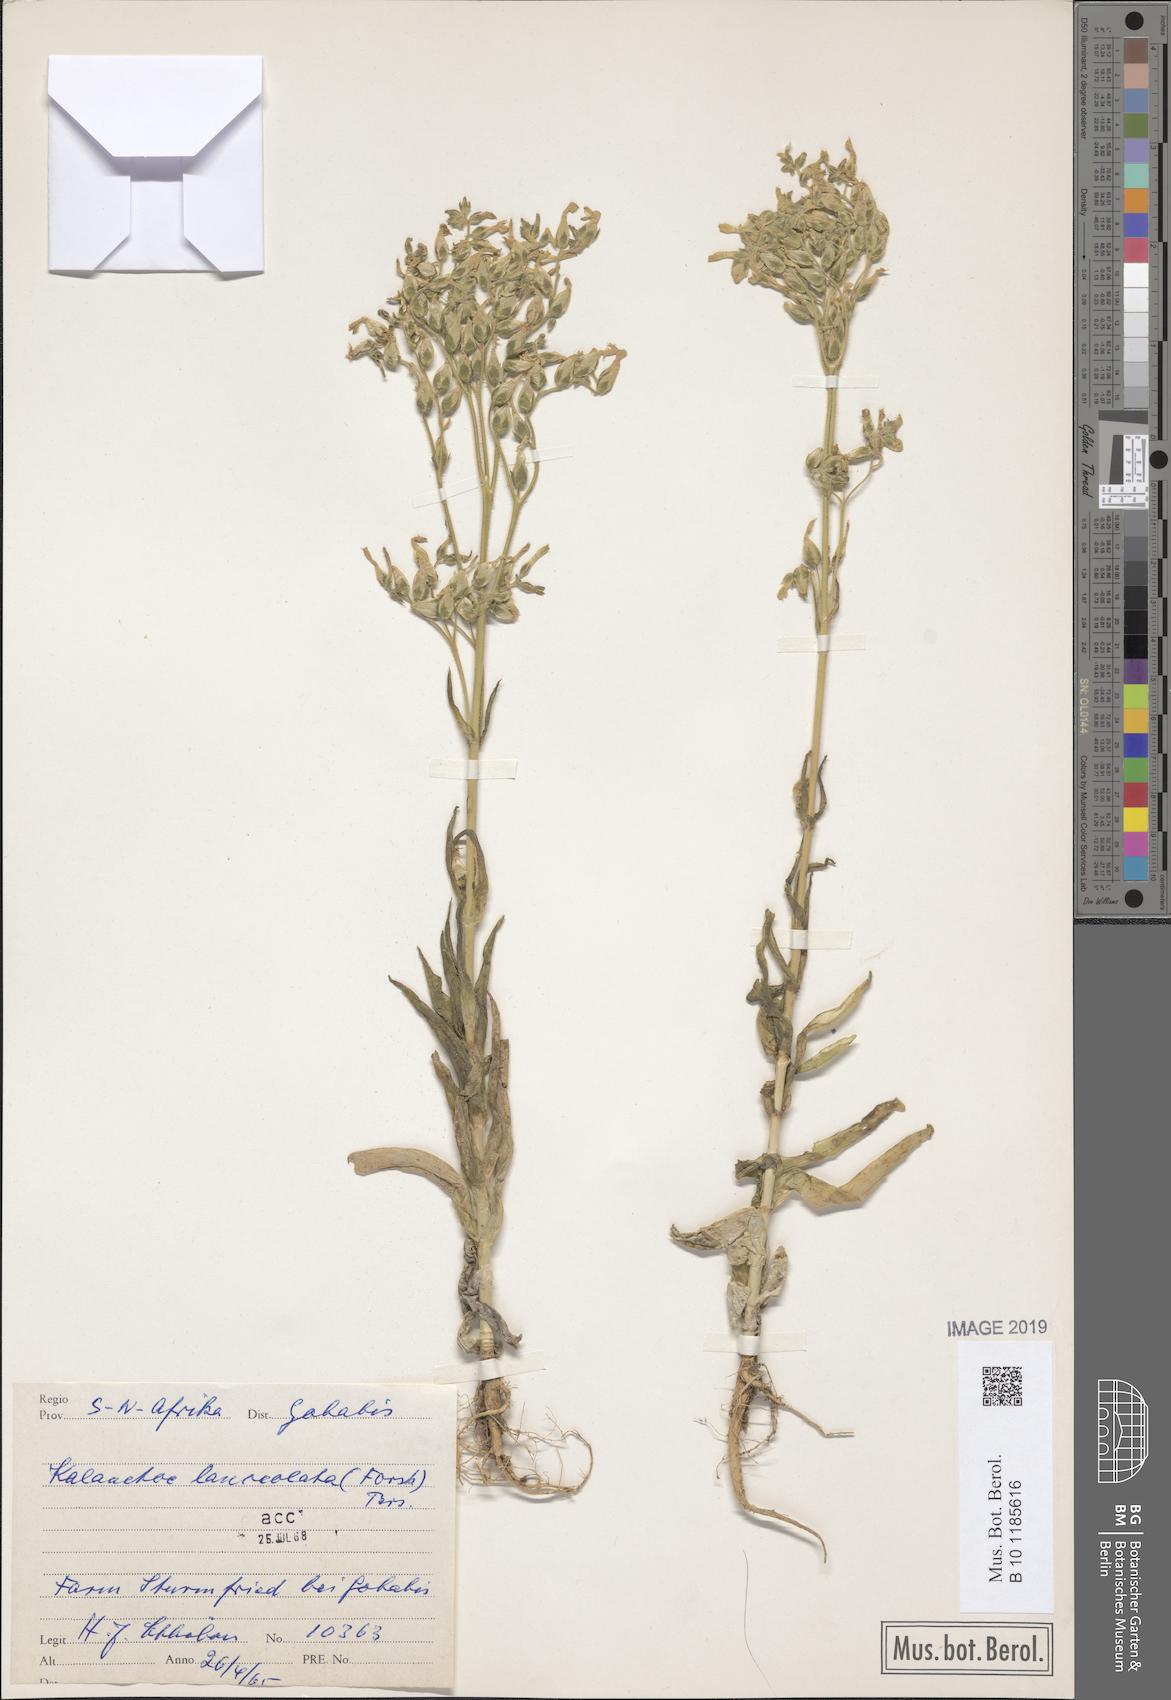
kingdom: Plantae
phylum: Tracheophyta
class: Magnoliopsida
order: Saxifragales
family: Crassulaceae
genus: Kalanchoe
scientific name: Kalanchoe lanceolata
